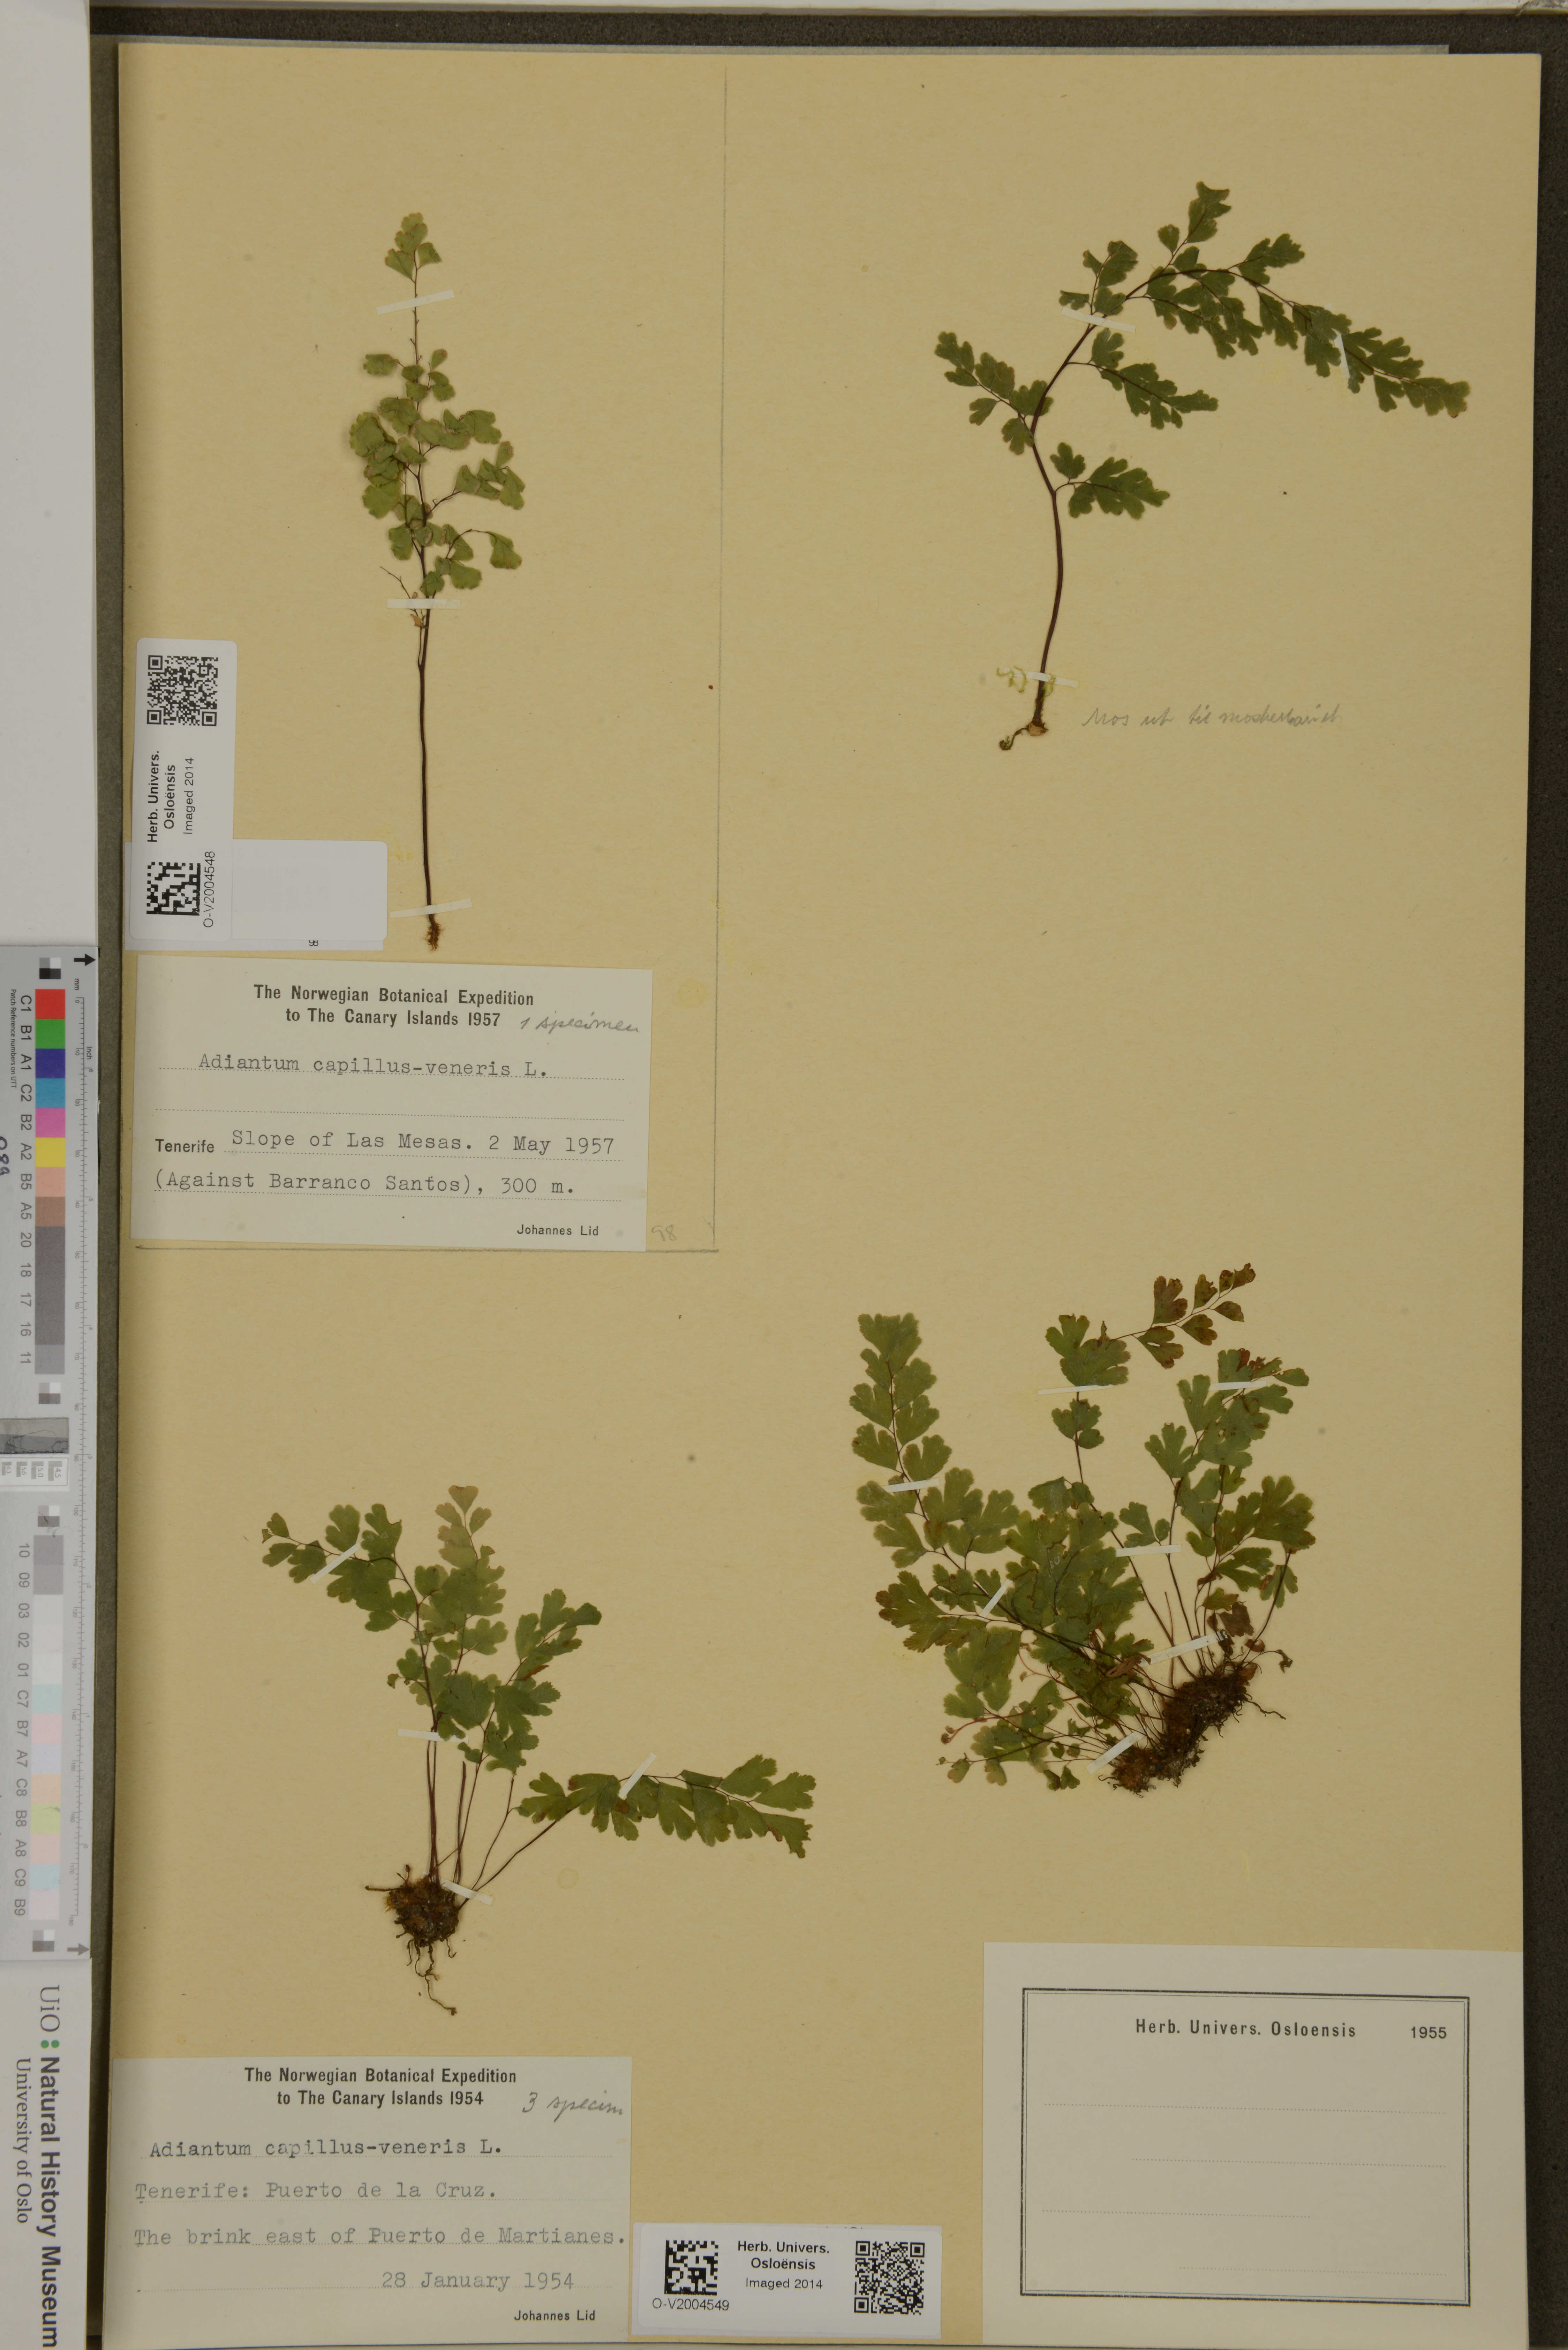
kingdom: Plantae
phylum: Tracheophyta
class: Polypodiopsida
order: Polypodiales
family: Pteridaceae
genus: Adiantum
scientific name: Adiantum capillus-veneris
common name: Maidenhair fern
